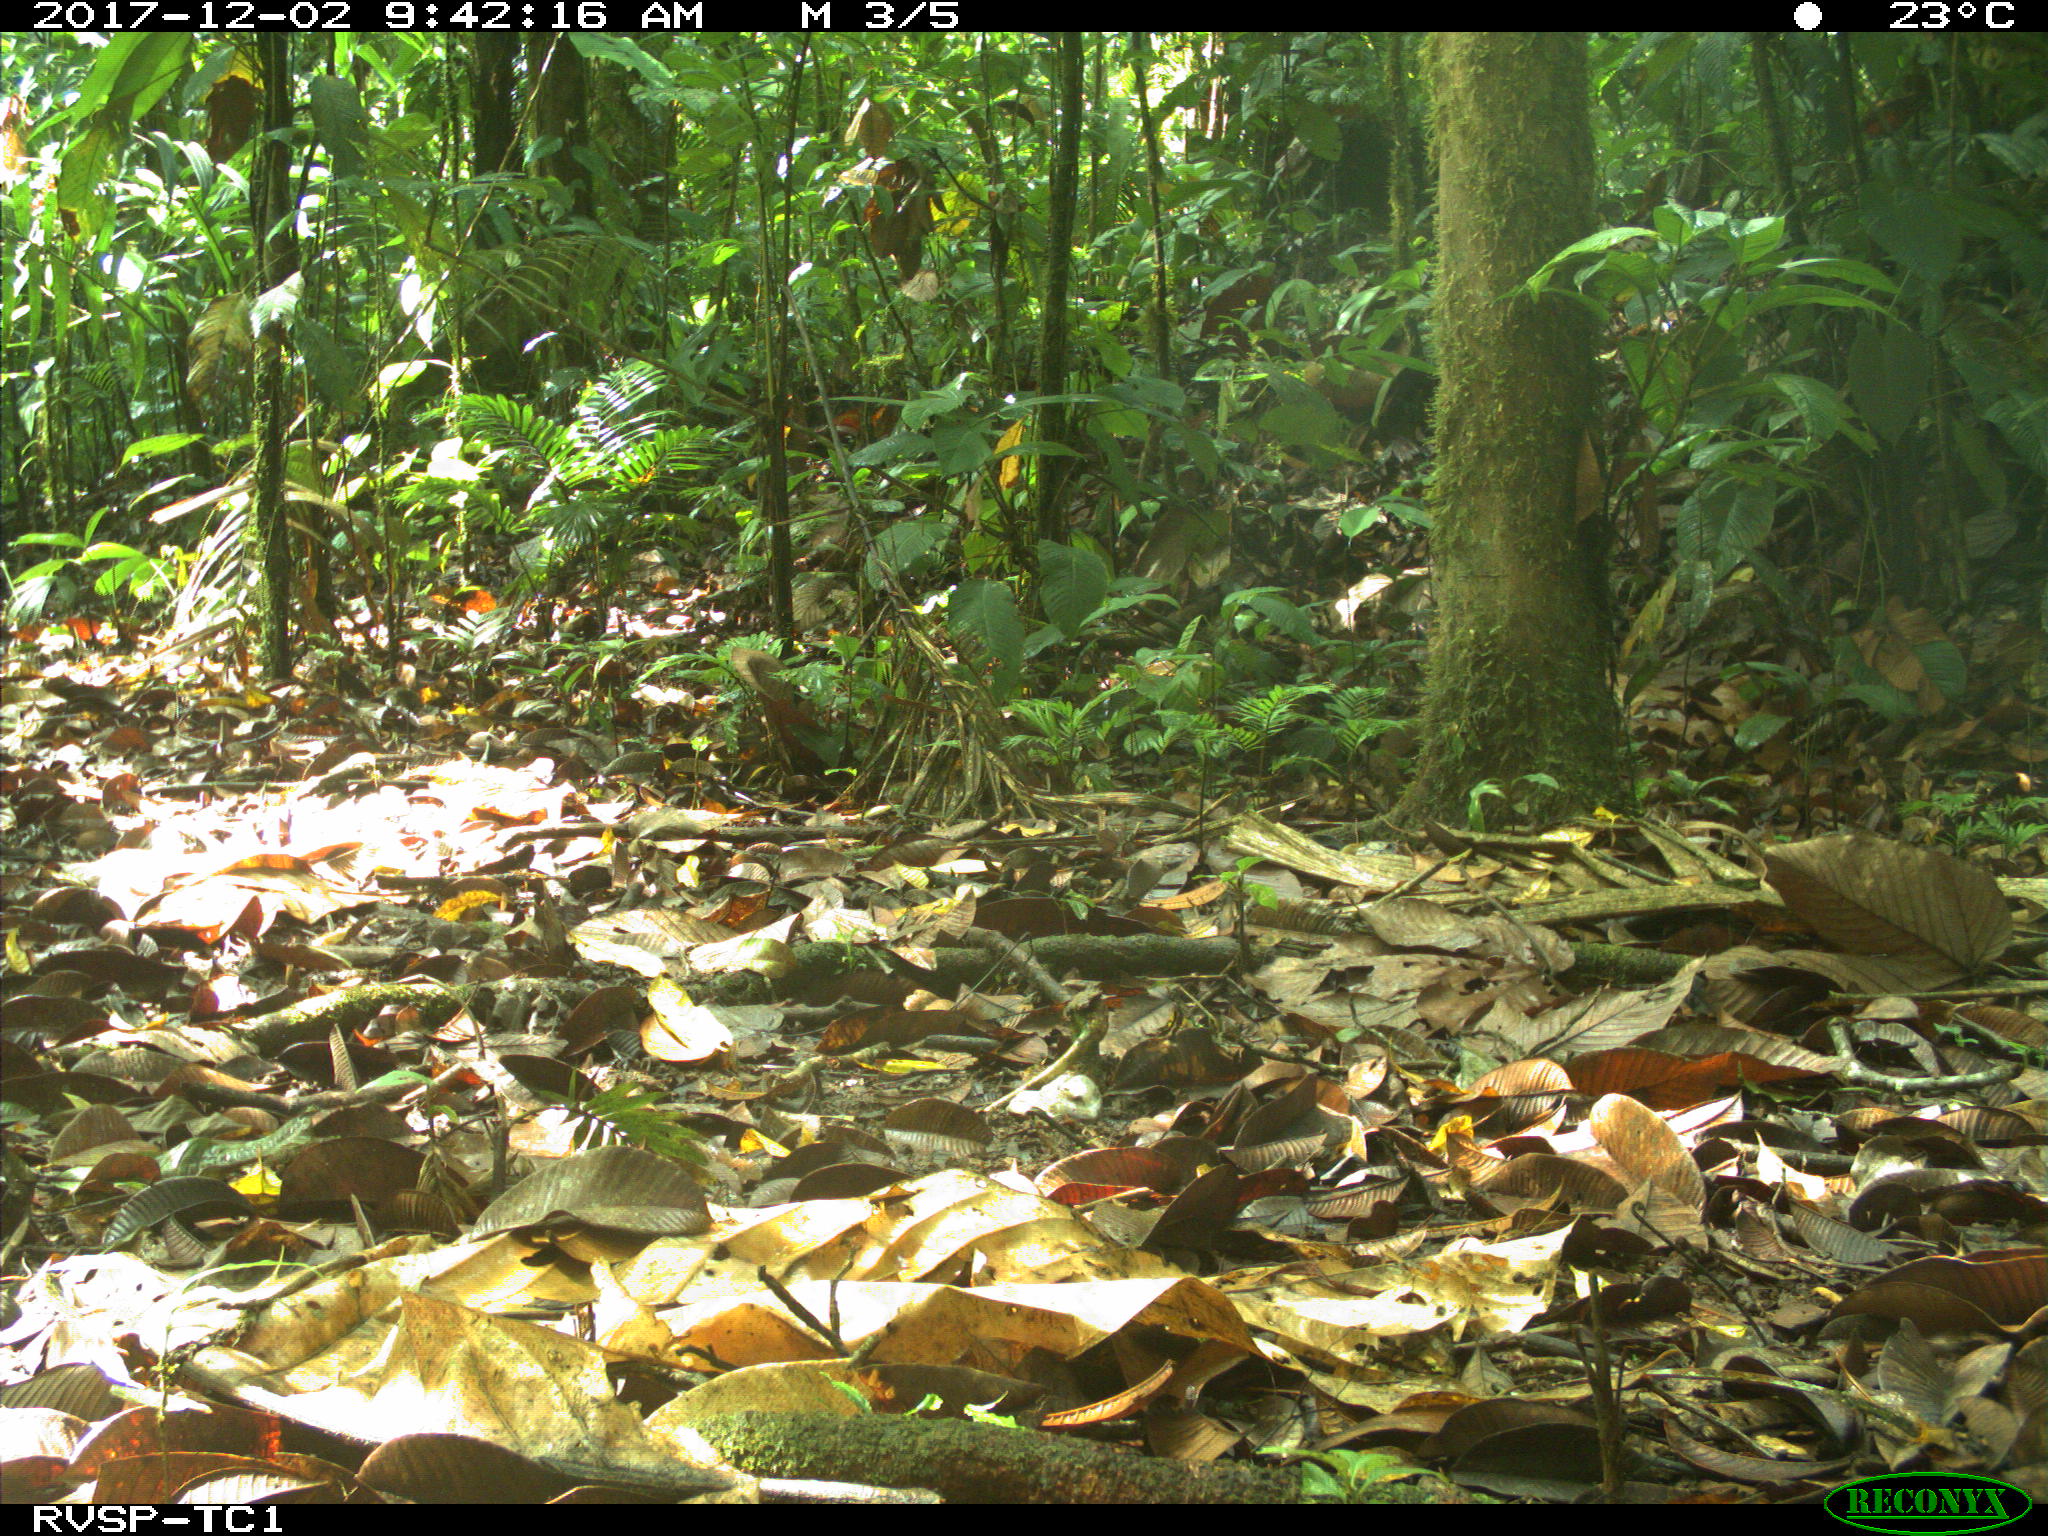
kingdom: Animalia
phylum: Chordata
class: Mammalia
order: Artiodactyla
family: Tayassuidae
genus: Tayassu
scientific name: Tayassu pecari
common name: White-lipped peccary
